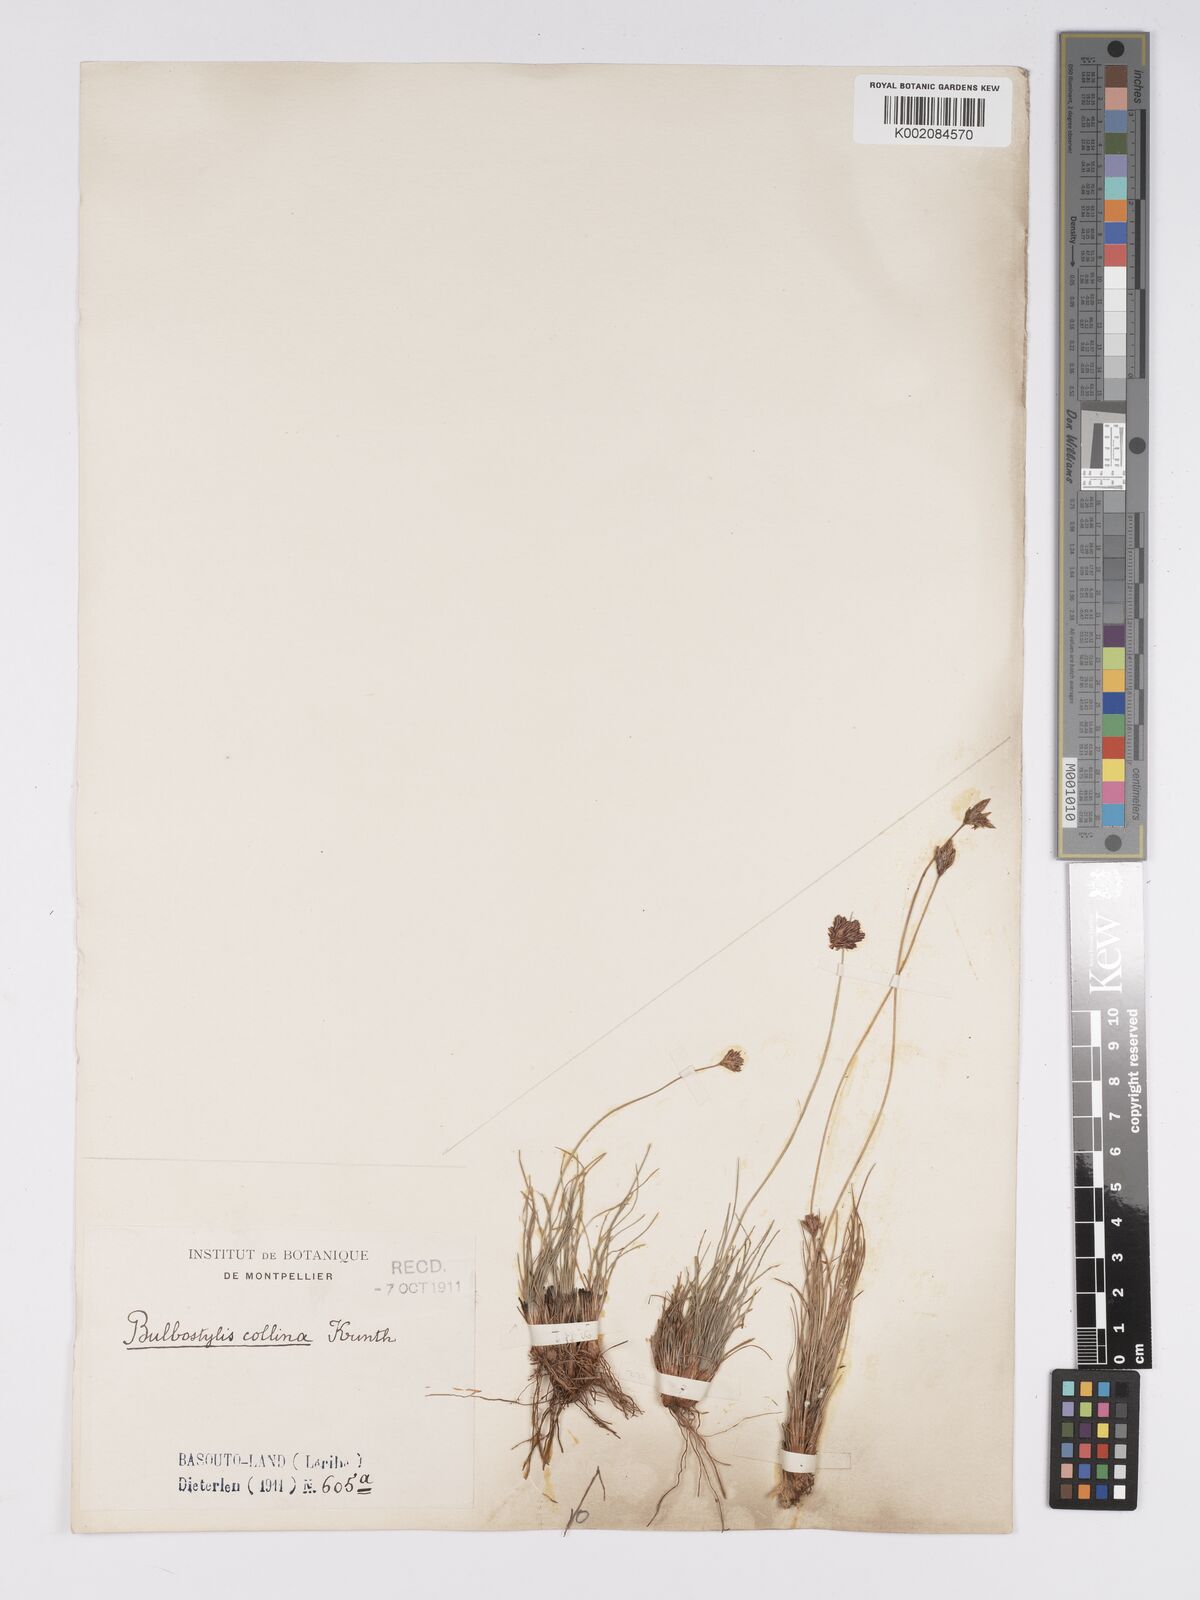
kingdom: Plantae
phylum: Tracheophyta
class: Liliopsida
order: Poales
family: Cyperaceae
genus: Bulbostylis
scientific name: Bulbostylis contexta
